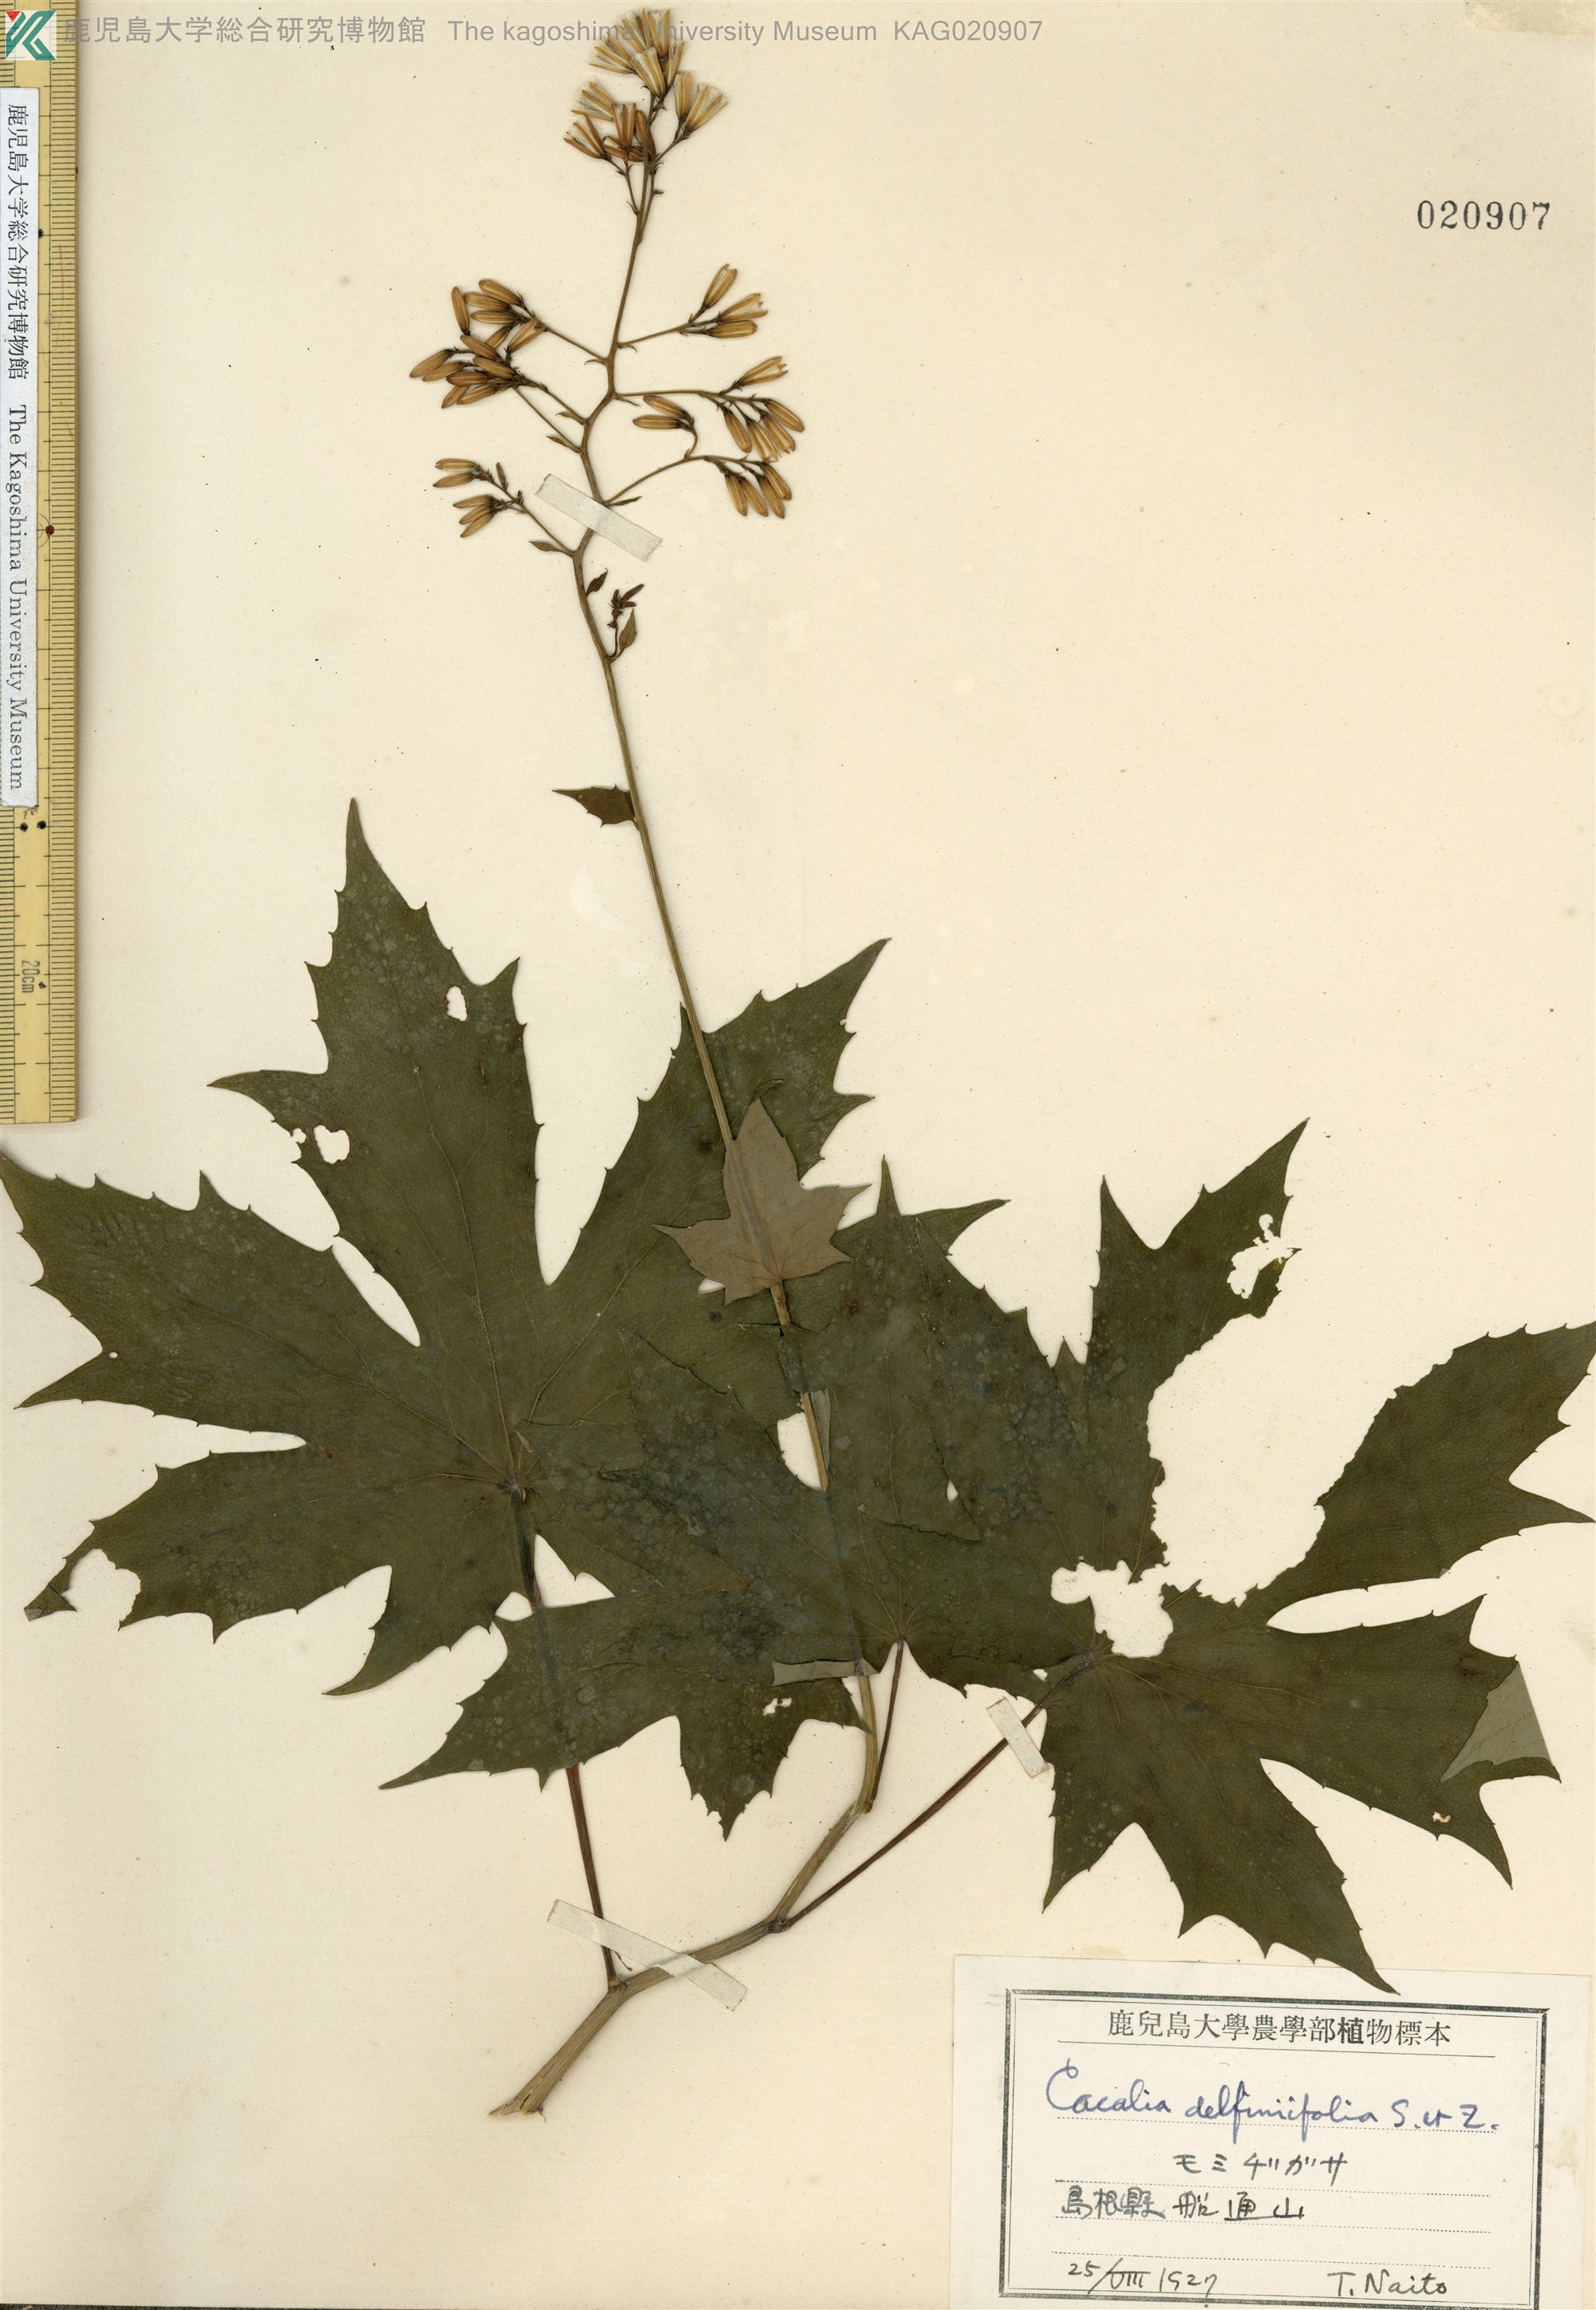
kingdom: Plantae
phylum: Tracheophyta
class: Magnoliopsida
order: Asterales
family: Asteraceae
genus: Japonicalia
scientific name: Japonicalia delphiniifolia
